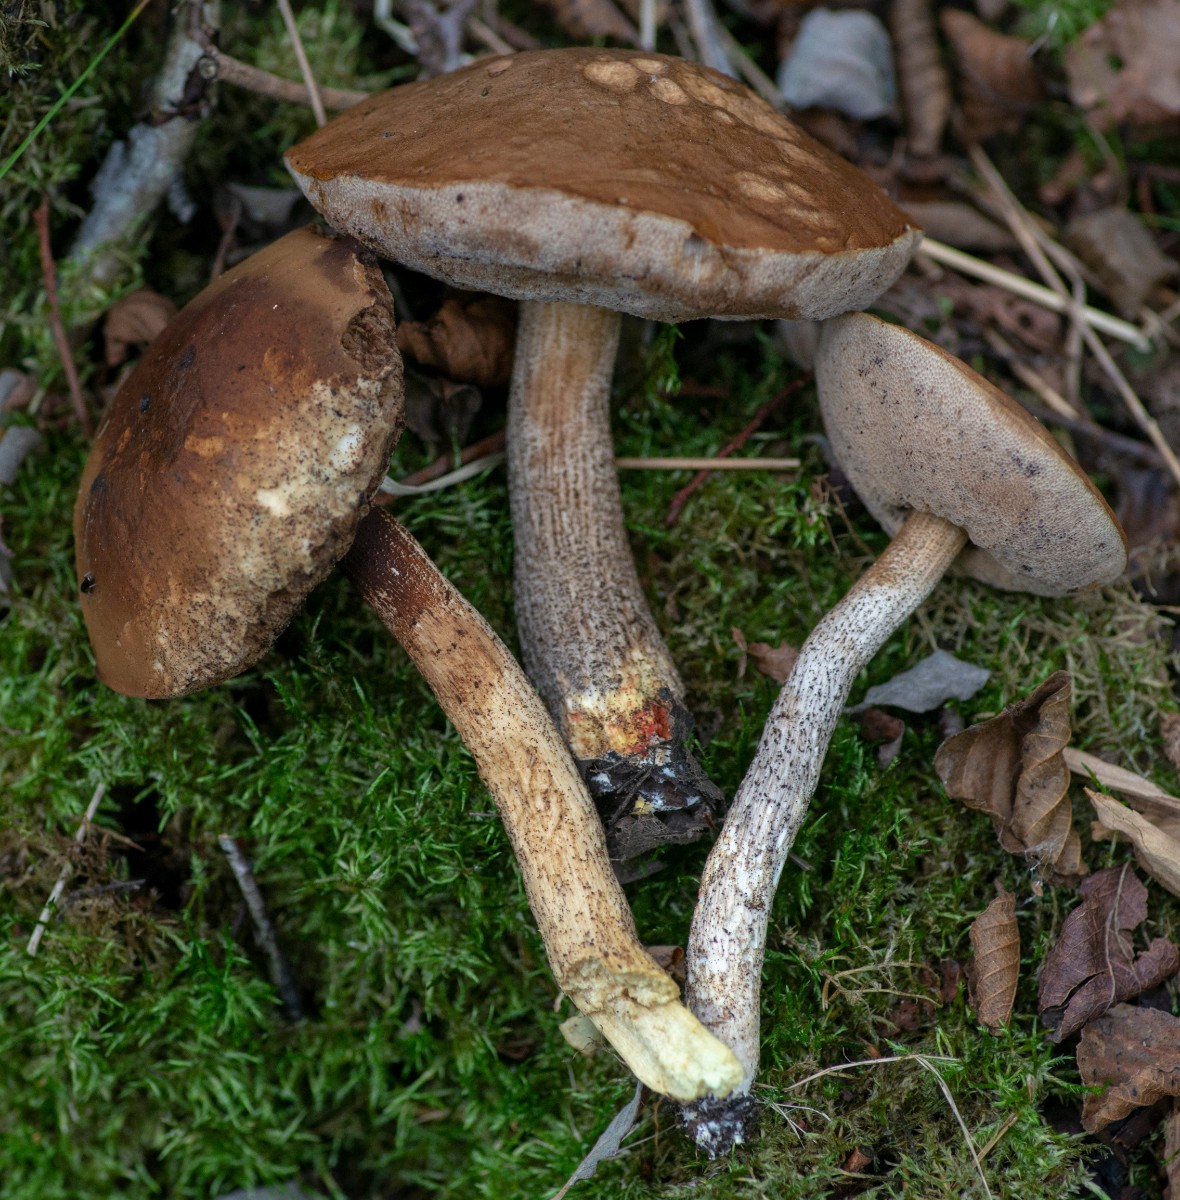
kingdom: Fungi
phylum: Basidiomycota
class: Agaricomycetes
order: Boletales
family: Boletaceae
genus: Leccinum
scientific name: Leccinum cyaneobasileucum
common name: almindelig skælrørhat
